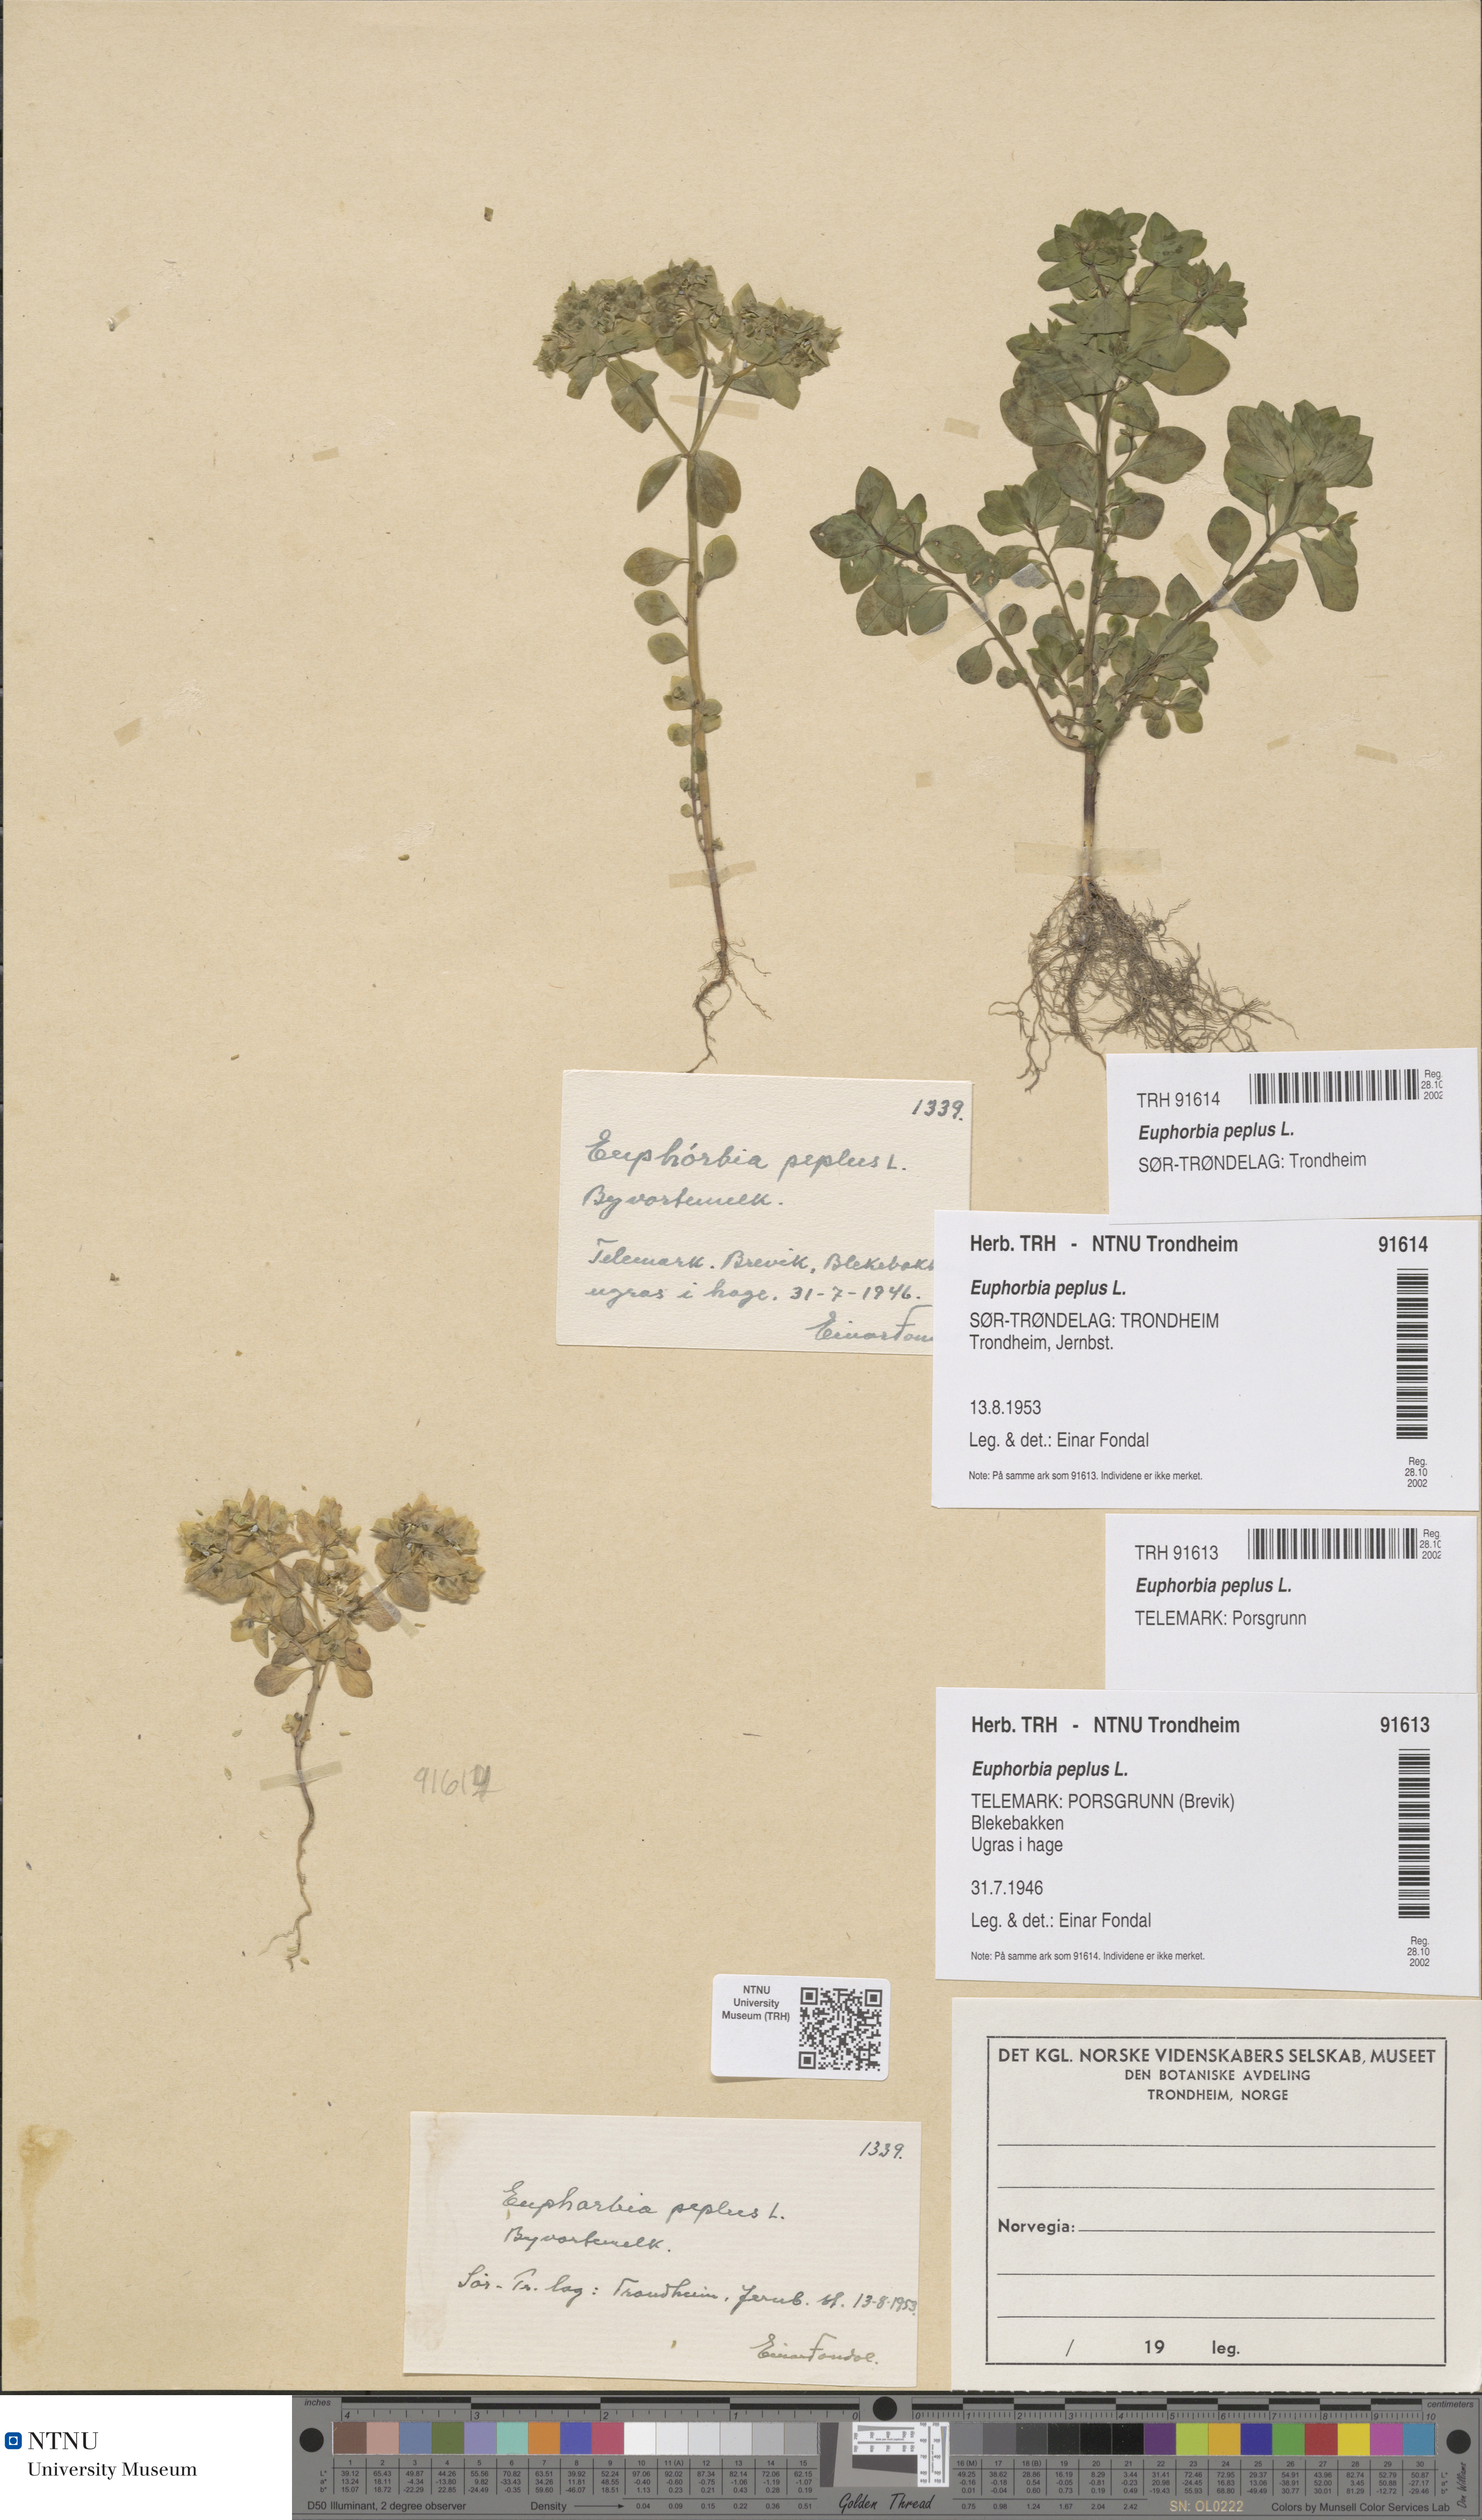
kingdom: Plantae
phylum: Tracheophyta
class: Magnoliopsida
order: Malpighiales
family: Euphorbiaceae
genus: Euphorbia
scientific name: Euphorbia peplus
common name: Petty spurge
